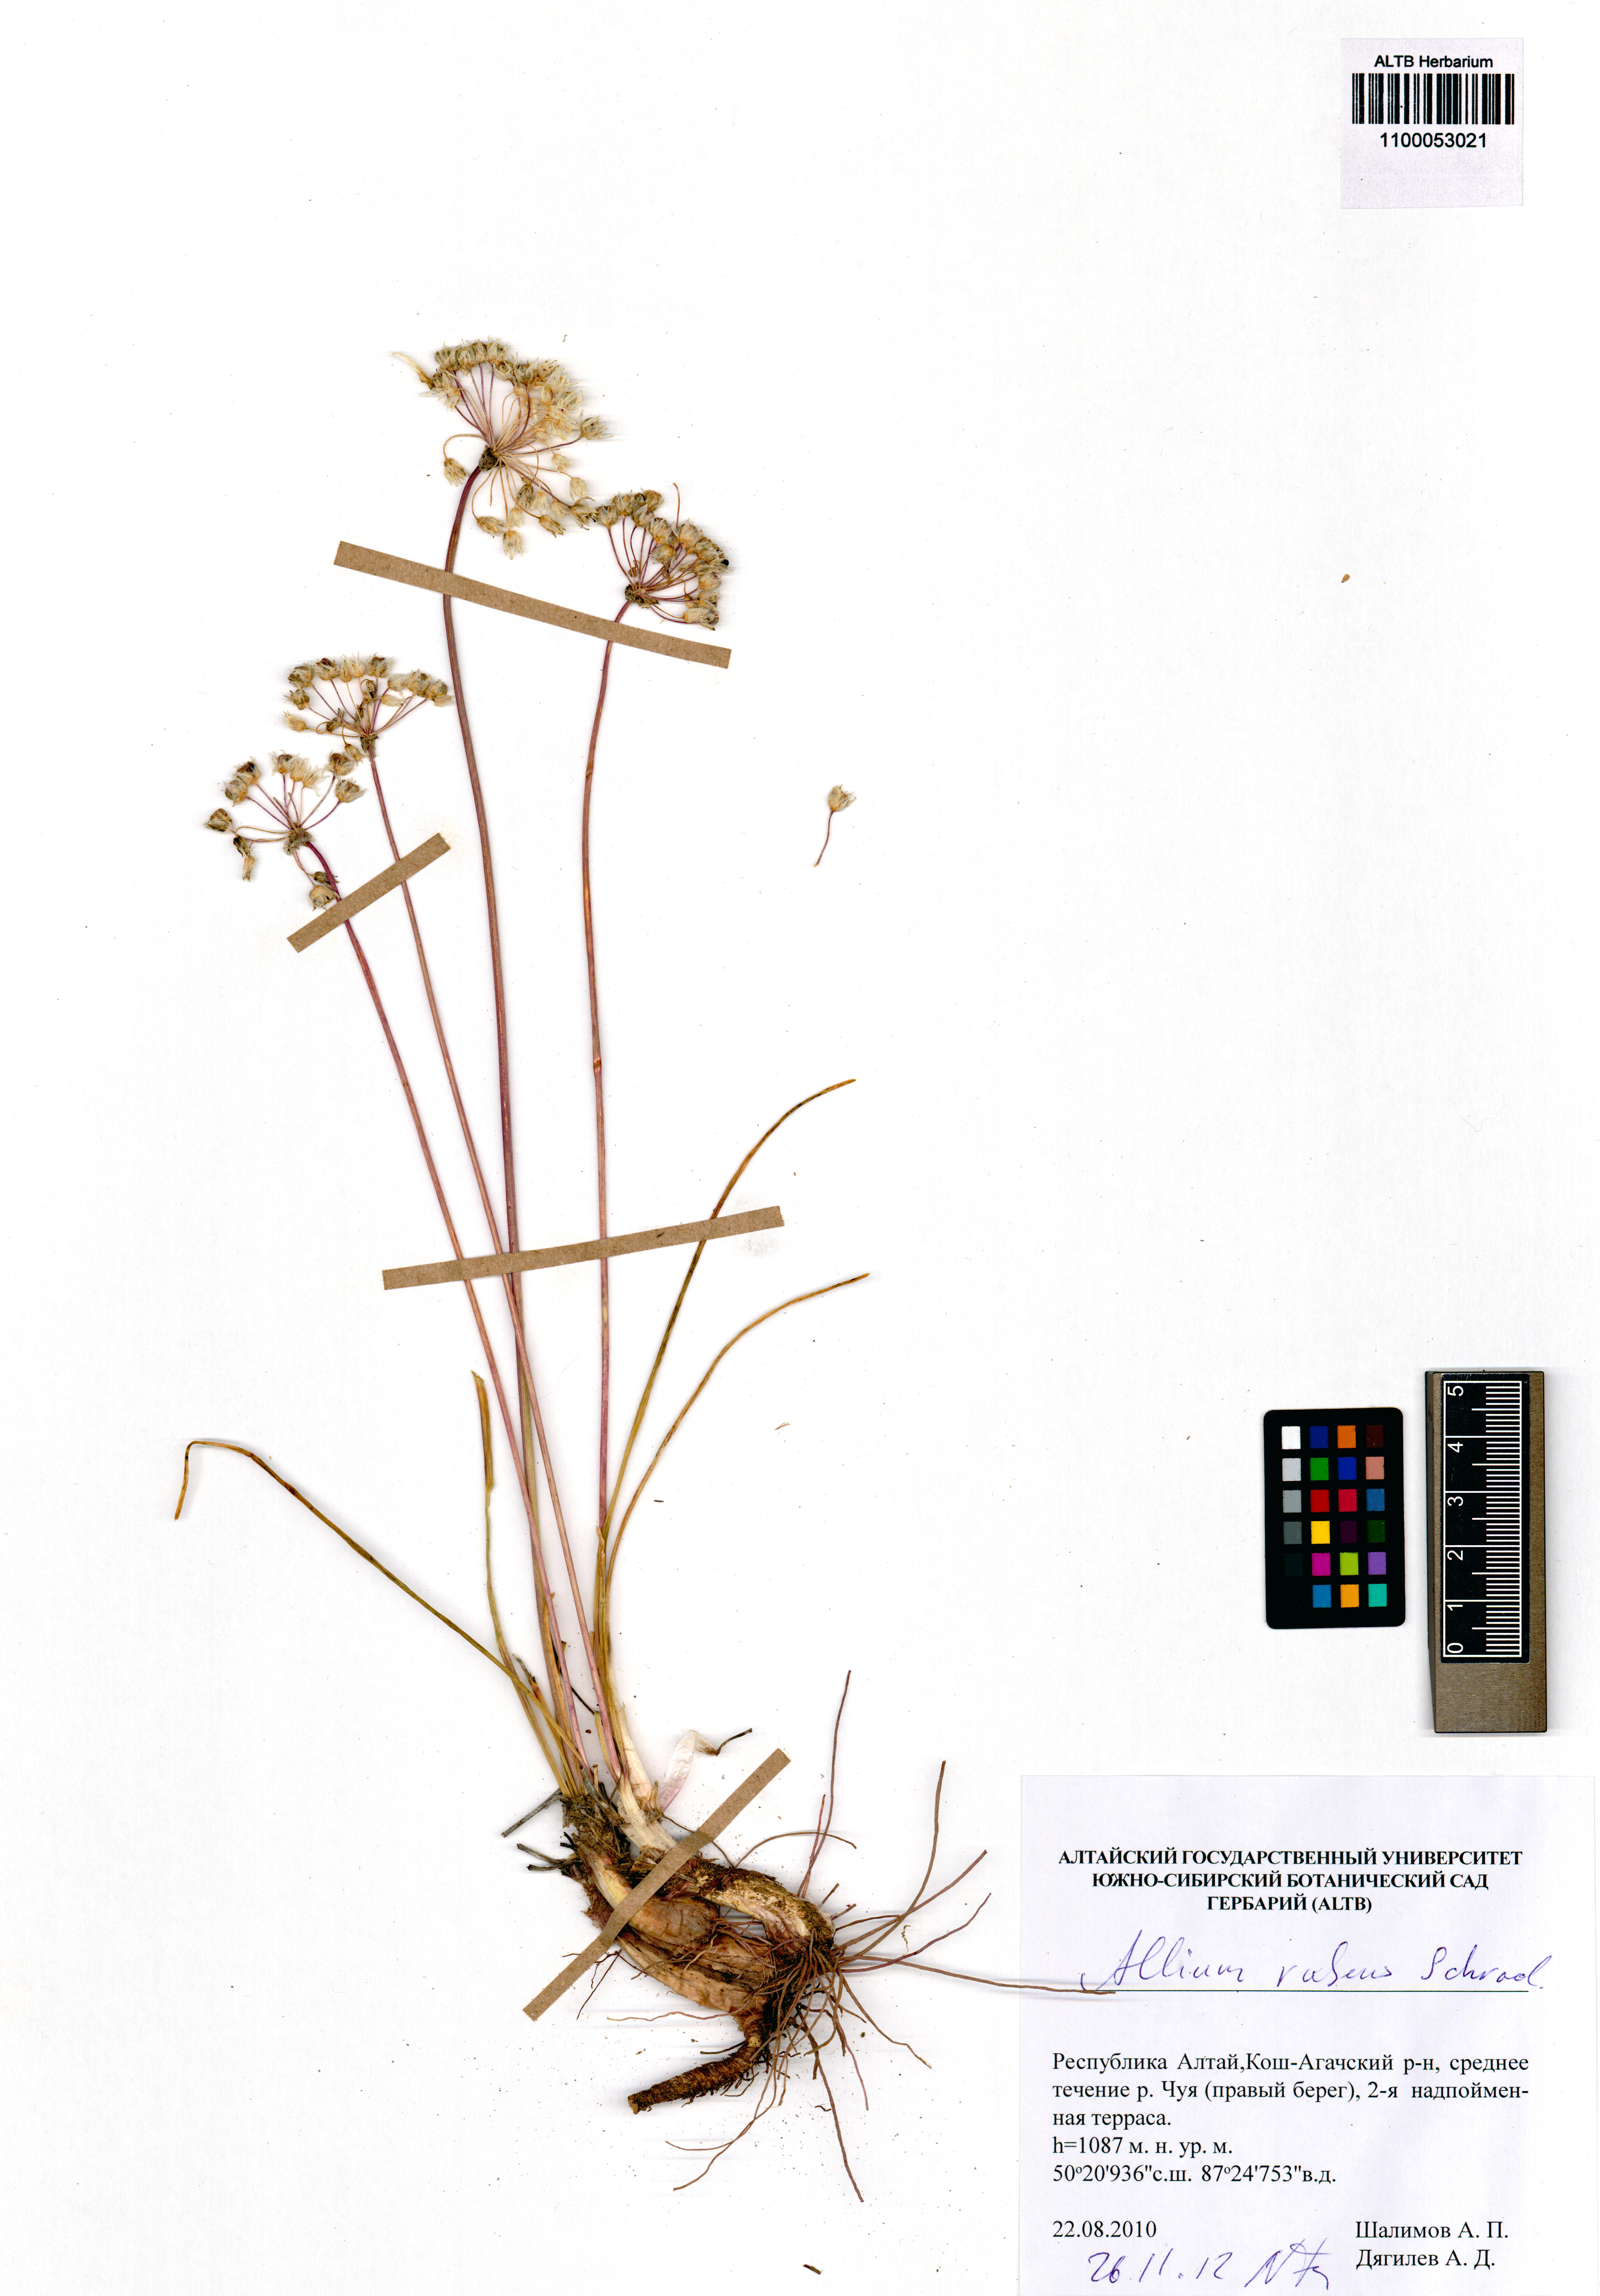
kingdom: Plantae
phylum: Tracheophyta
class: Liliopsida
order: Asparagales
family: Amaryllidaceae
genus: Allium
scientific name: Allium rubens
